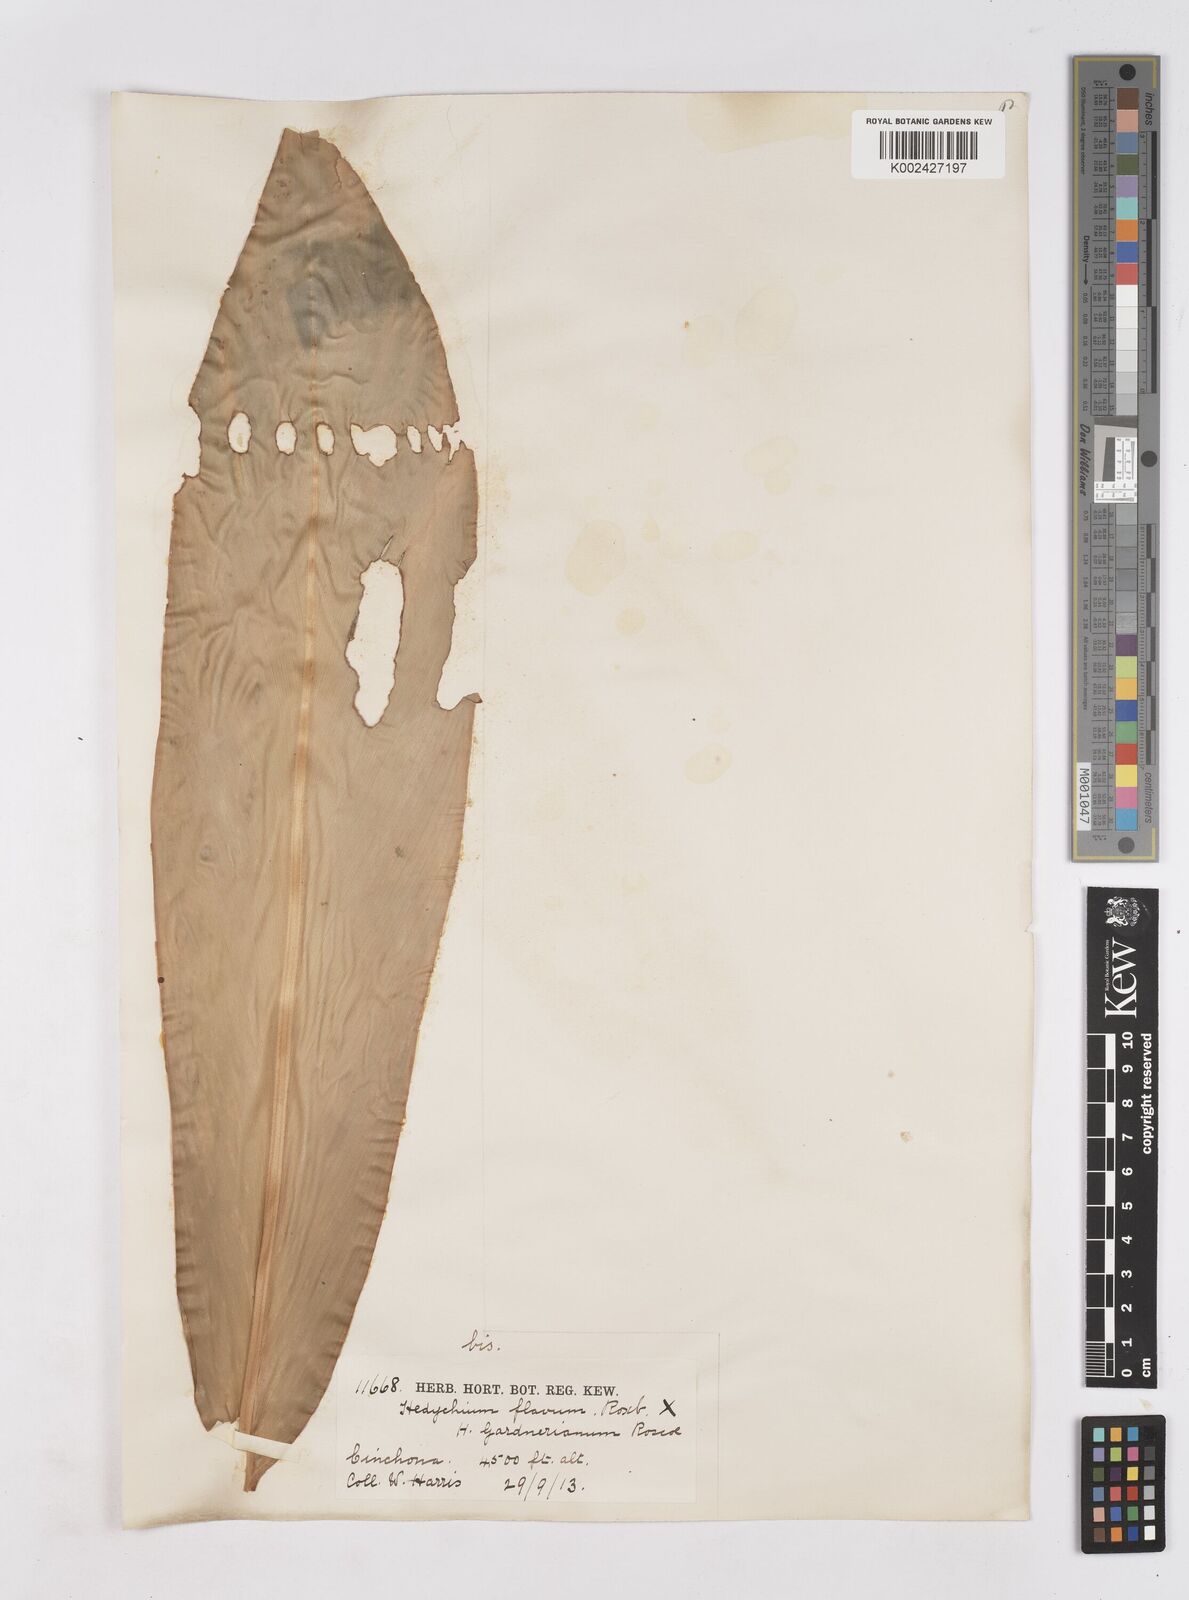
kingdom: Plantae
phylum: Tracheophyta
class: Liliopsida
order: Zingiberales
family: Zingiberaceae
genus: Hedychium
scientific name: Hedychium flavum
